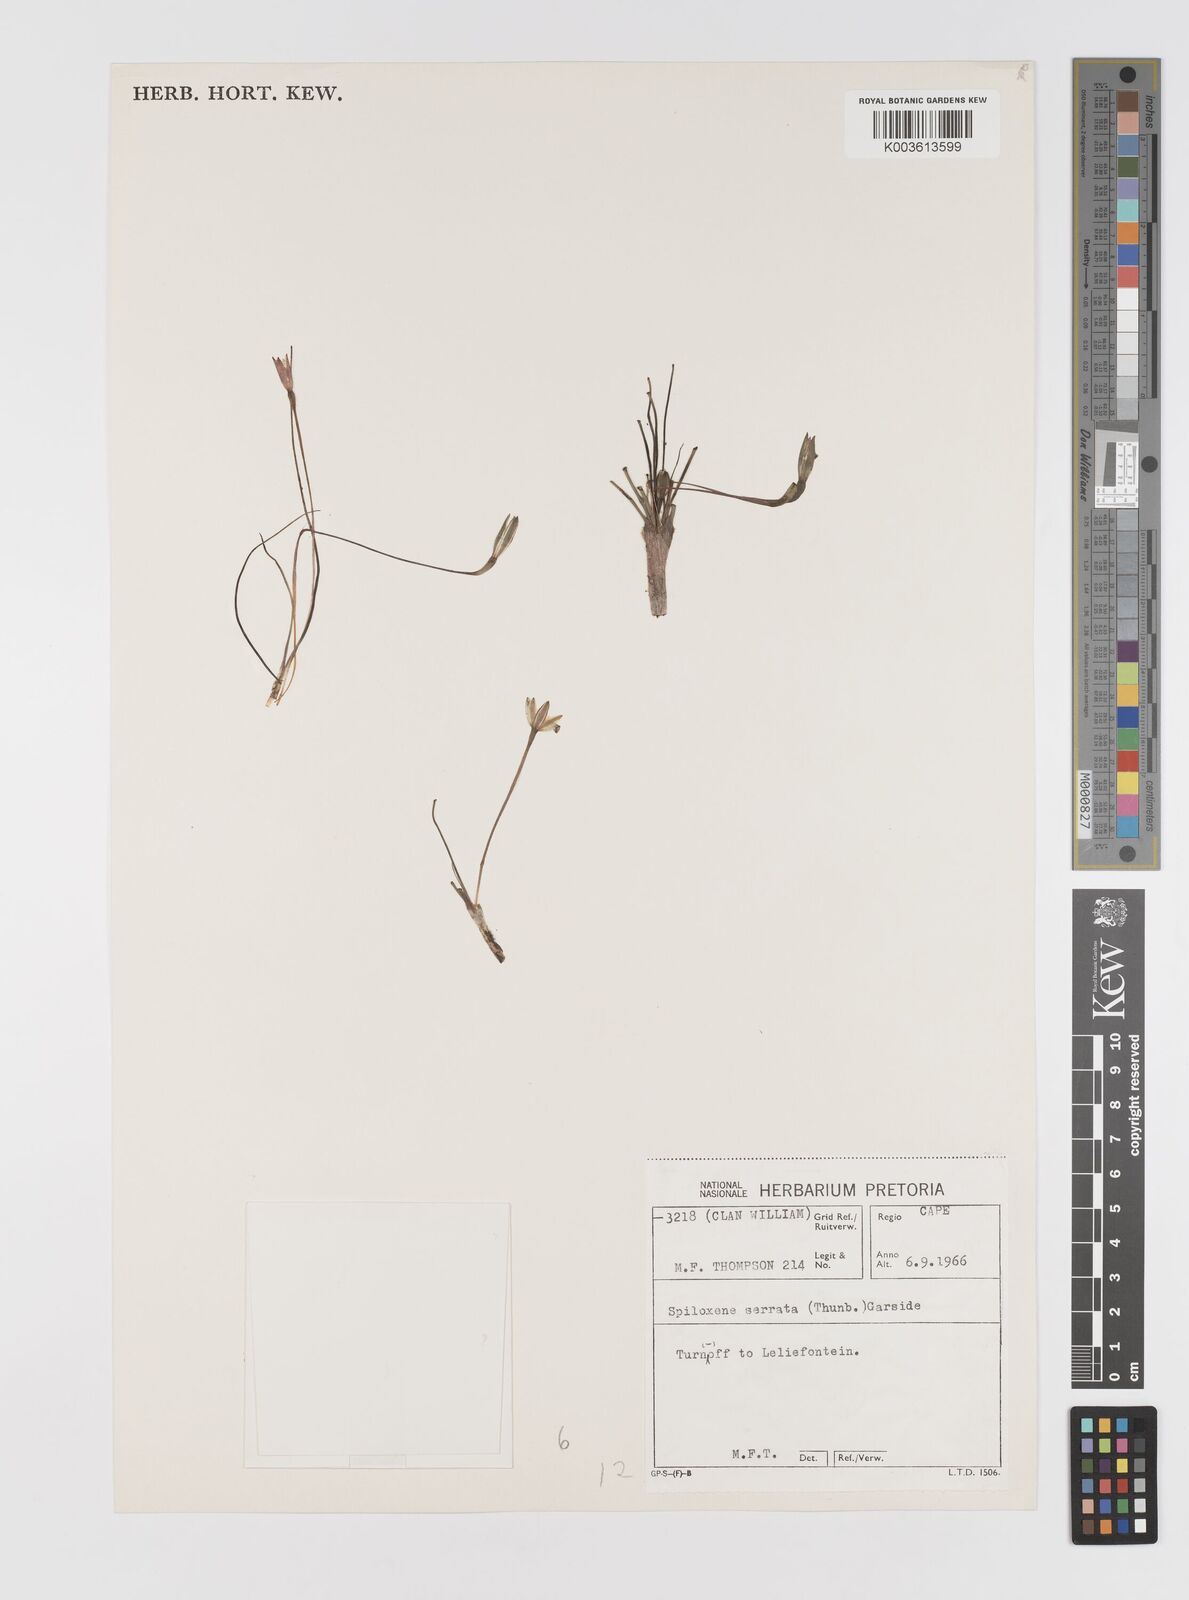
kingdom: Plantae
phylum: Tracheophyta
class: Liliopsida
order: Asparagales
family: Hypoxidaceae
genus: Pauridia
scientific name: Pauridia serrata
